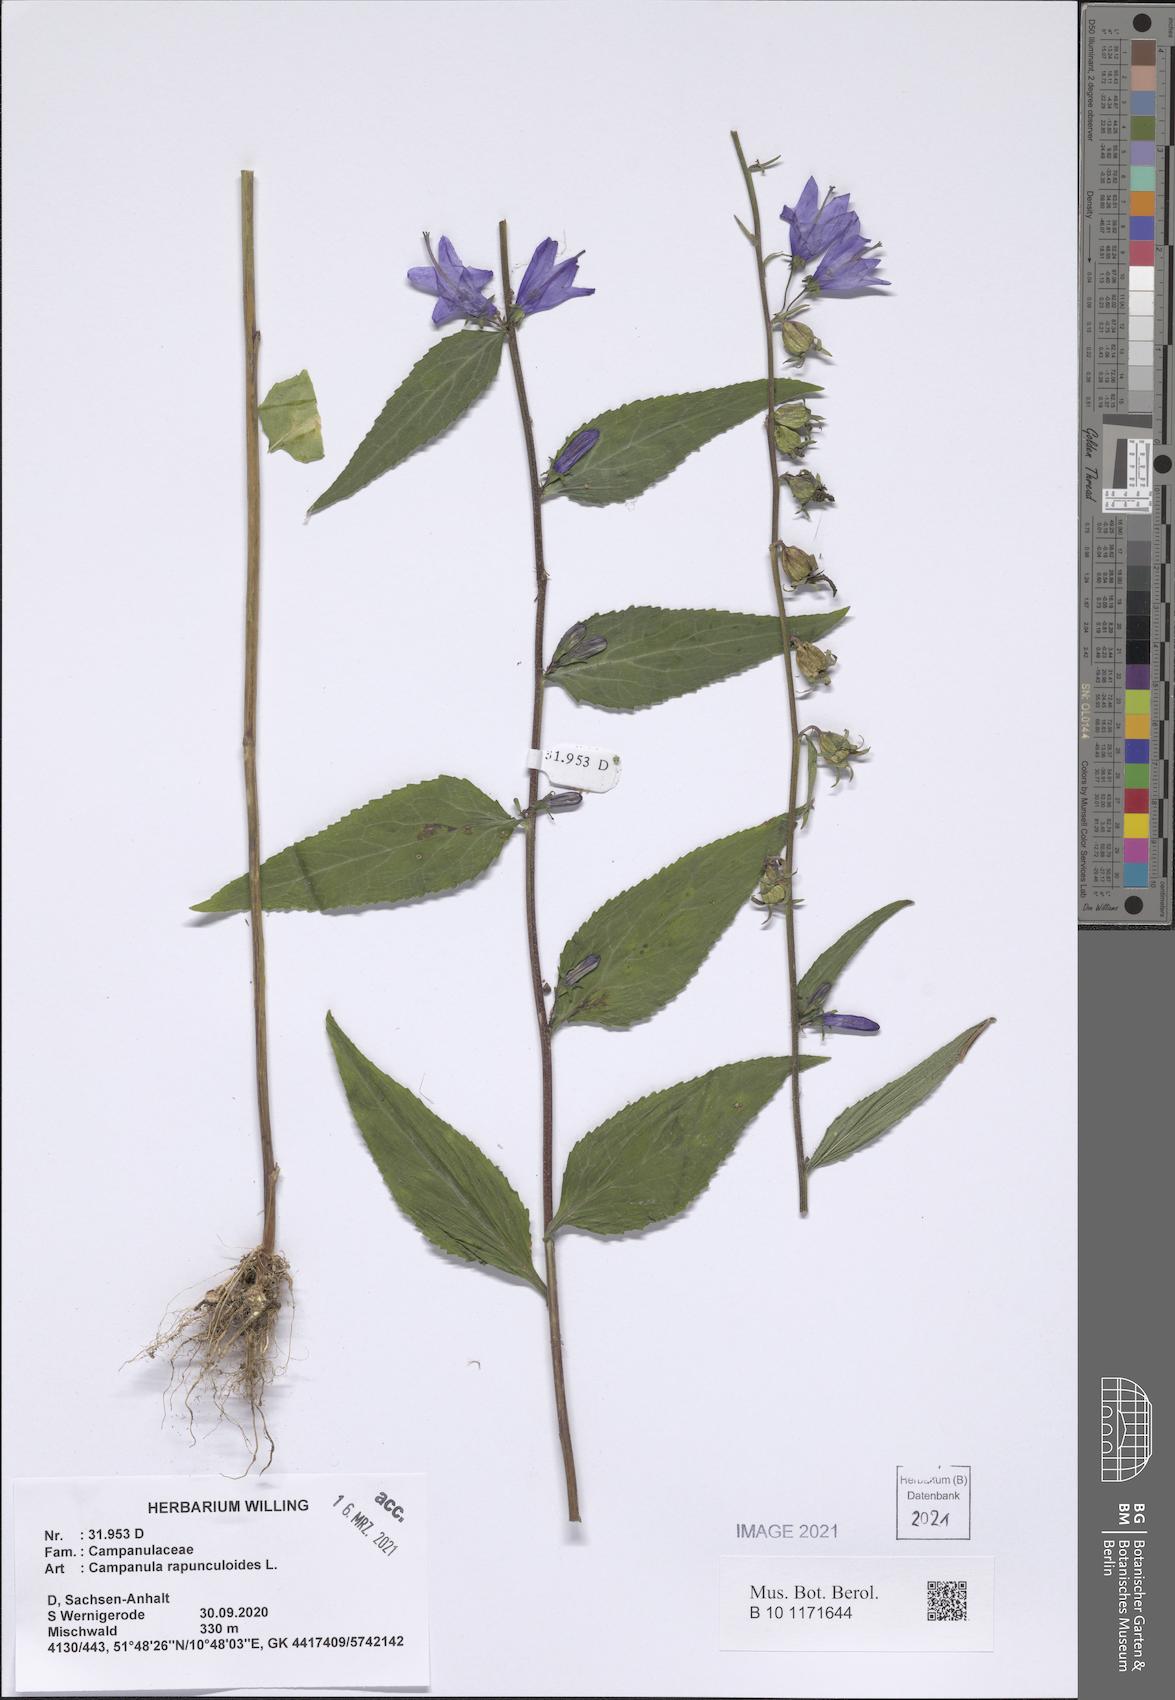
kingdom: Plantae
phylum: Tracheophyta
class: Magnoliopsida
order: Asterales
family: Campanulaceae
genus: Campanula
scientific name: Campanula rapunculoides
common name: Creeping bellflower
